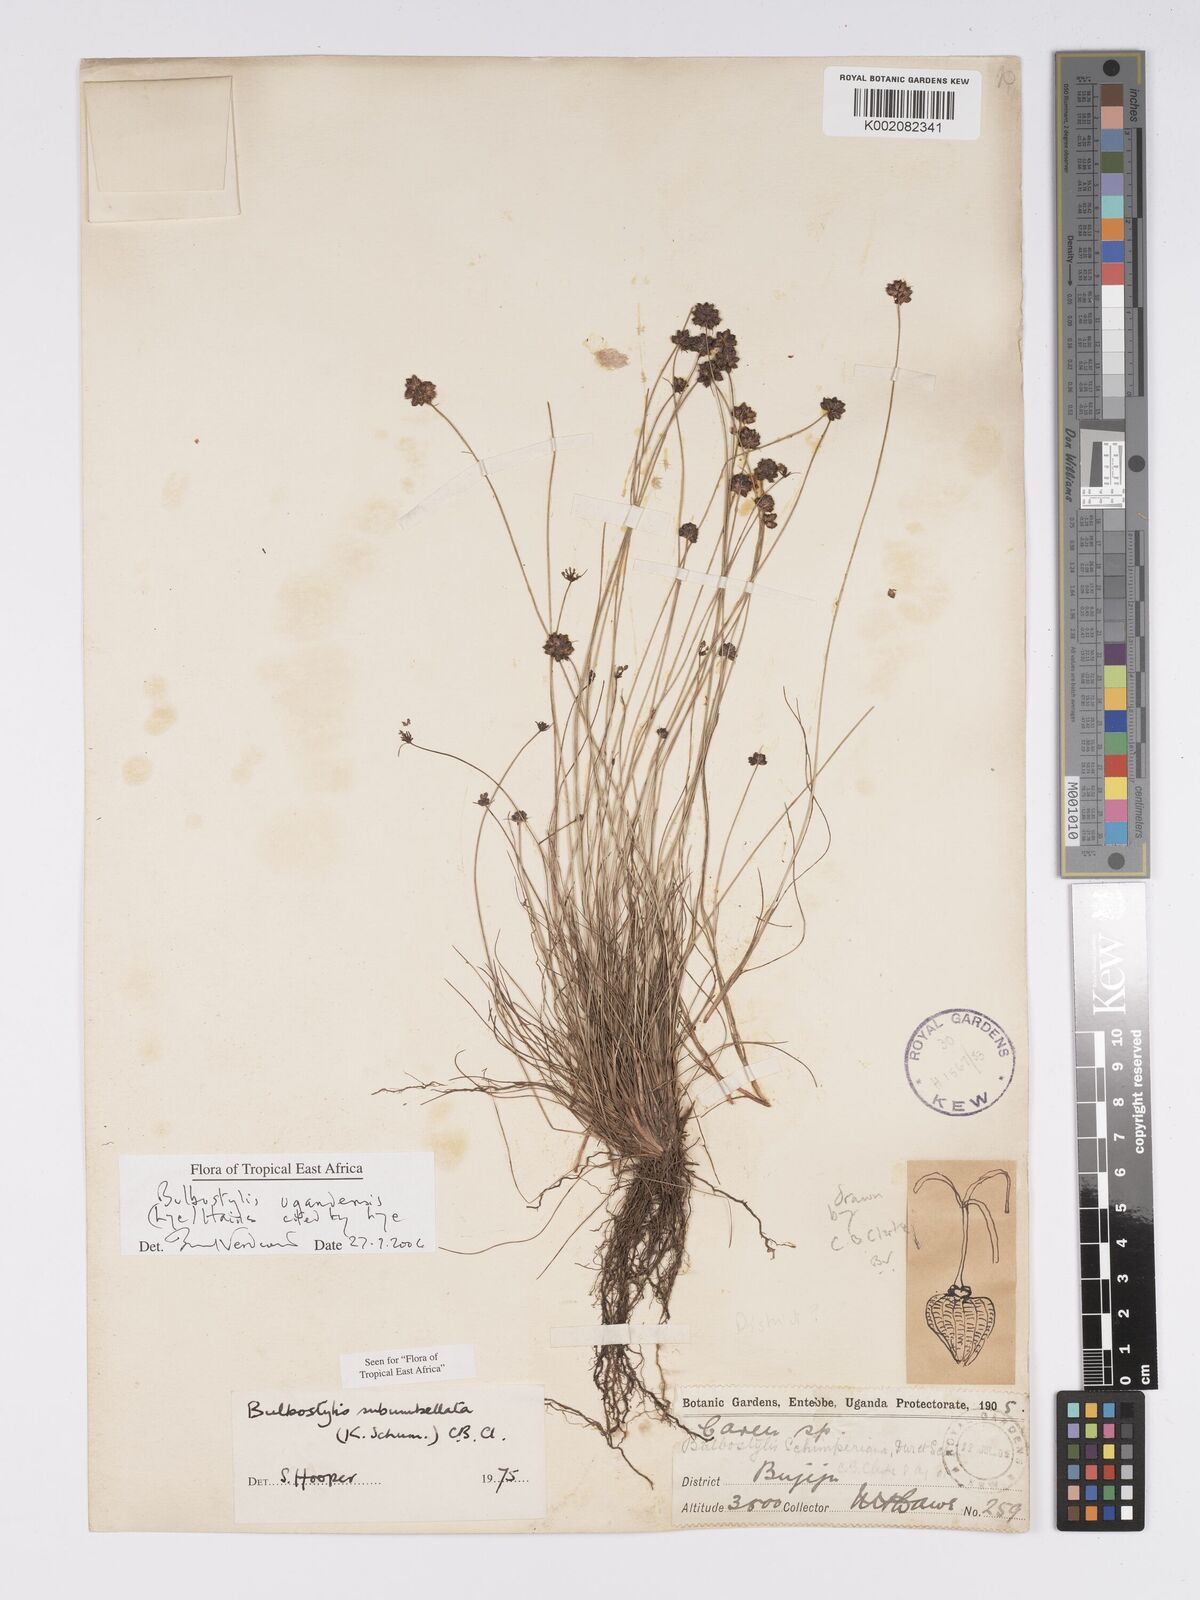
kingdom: Plantae
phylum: Tracheophyta
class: Liliopsida
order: Poales
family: Cyperaceae
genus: Bulbostylis
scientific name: Bulbostylis ugandensis
